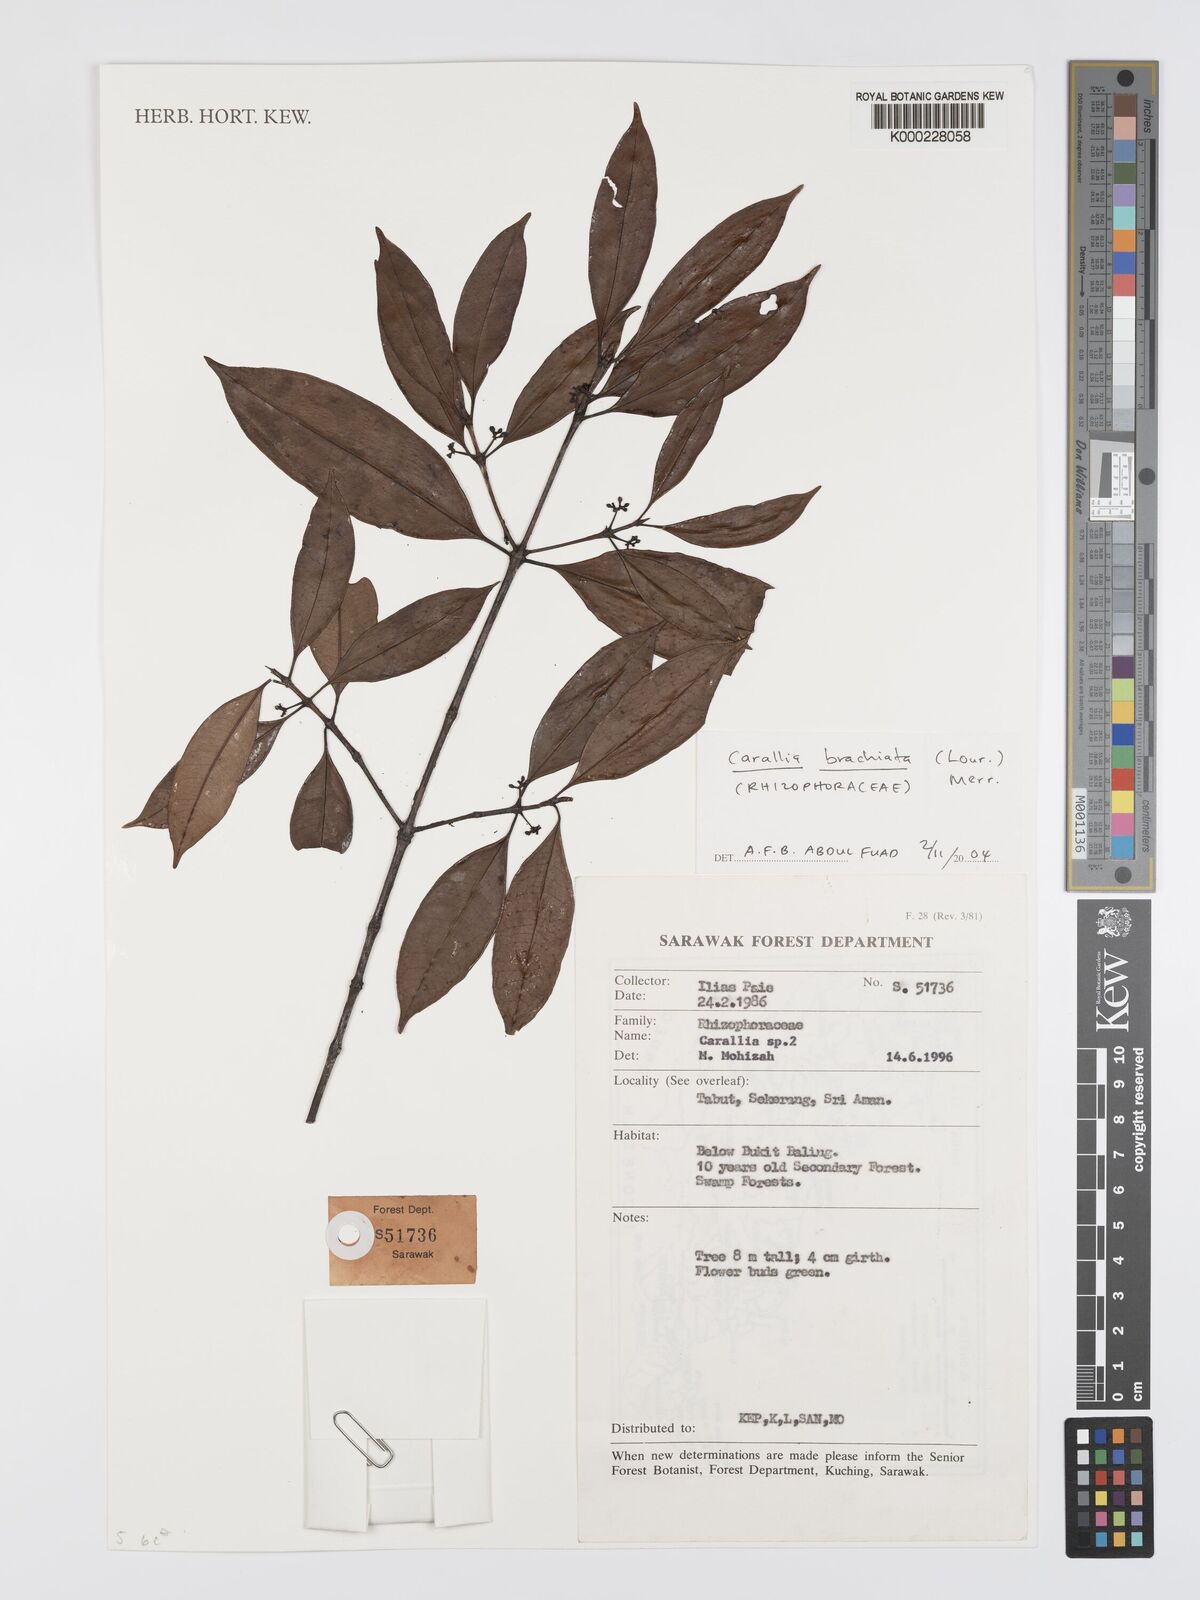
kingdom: Plantae
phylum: Tracheophyta
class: Magnoliopsida
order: Malpighiales
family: Rhizophoraceae
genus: Carallia
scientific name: Carallia brachiata
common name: Carallawood
